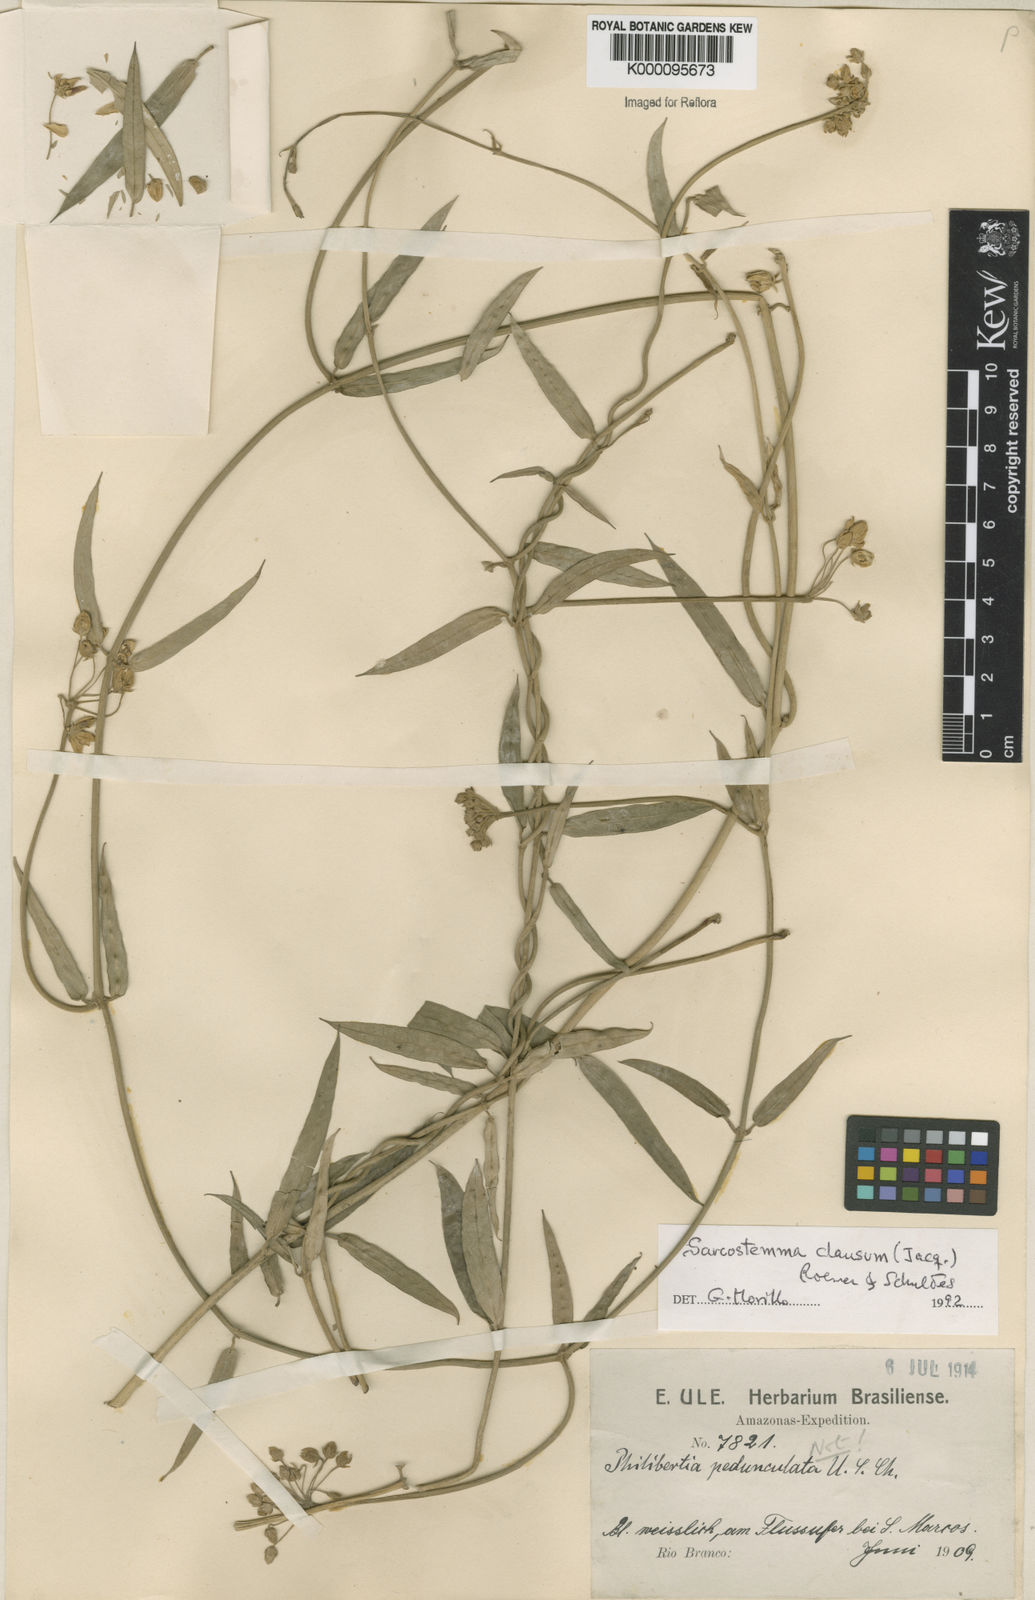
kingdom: Plantae
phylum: Tracheophyta
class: Magnoliopsida
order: Gentianales
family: Apocynaceae
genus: Funastrum
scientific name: Funastrum clausum
